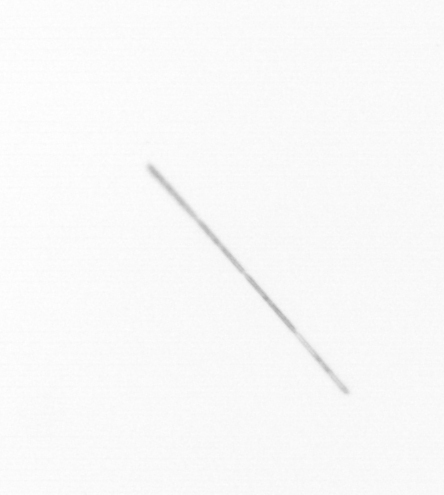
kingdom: Chromista
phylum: Ochrophyta
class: Bacillariophyceae
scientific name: Bacillariophyceae
